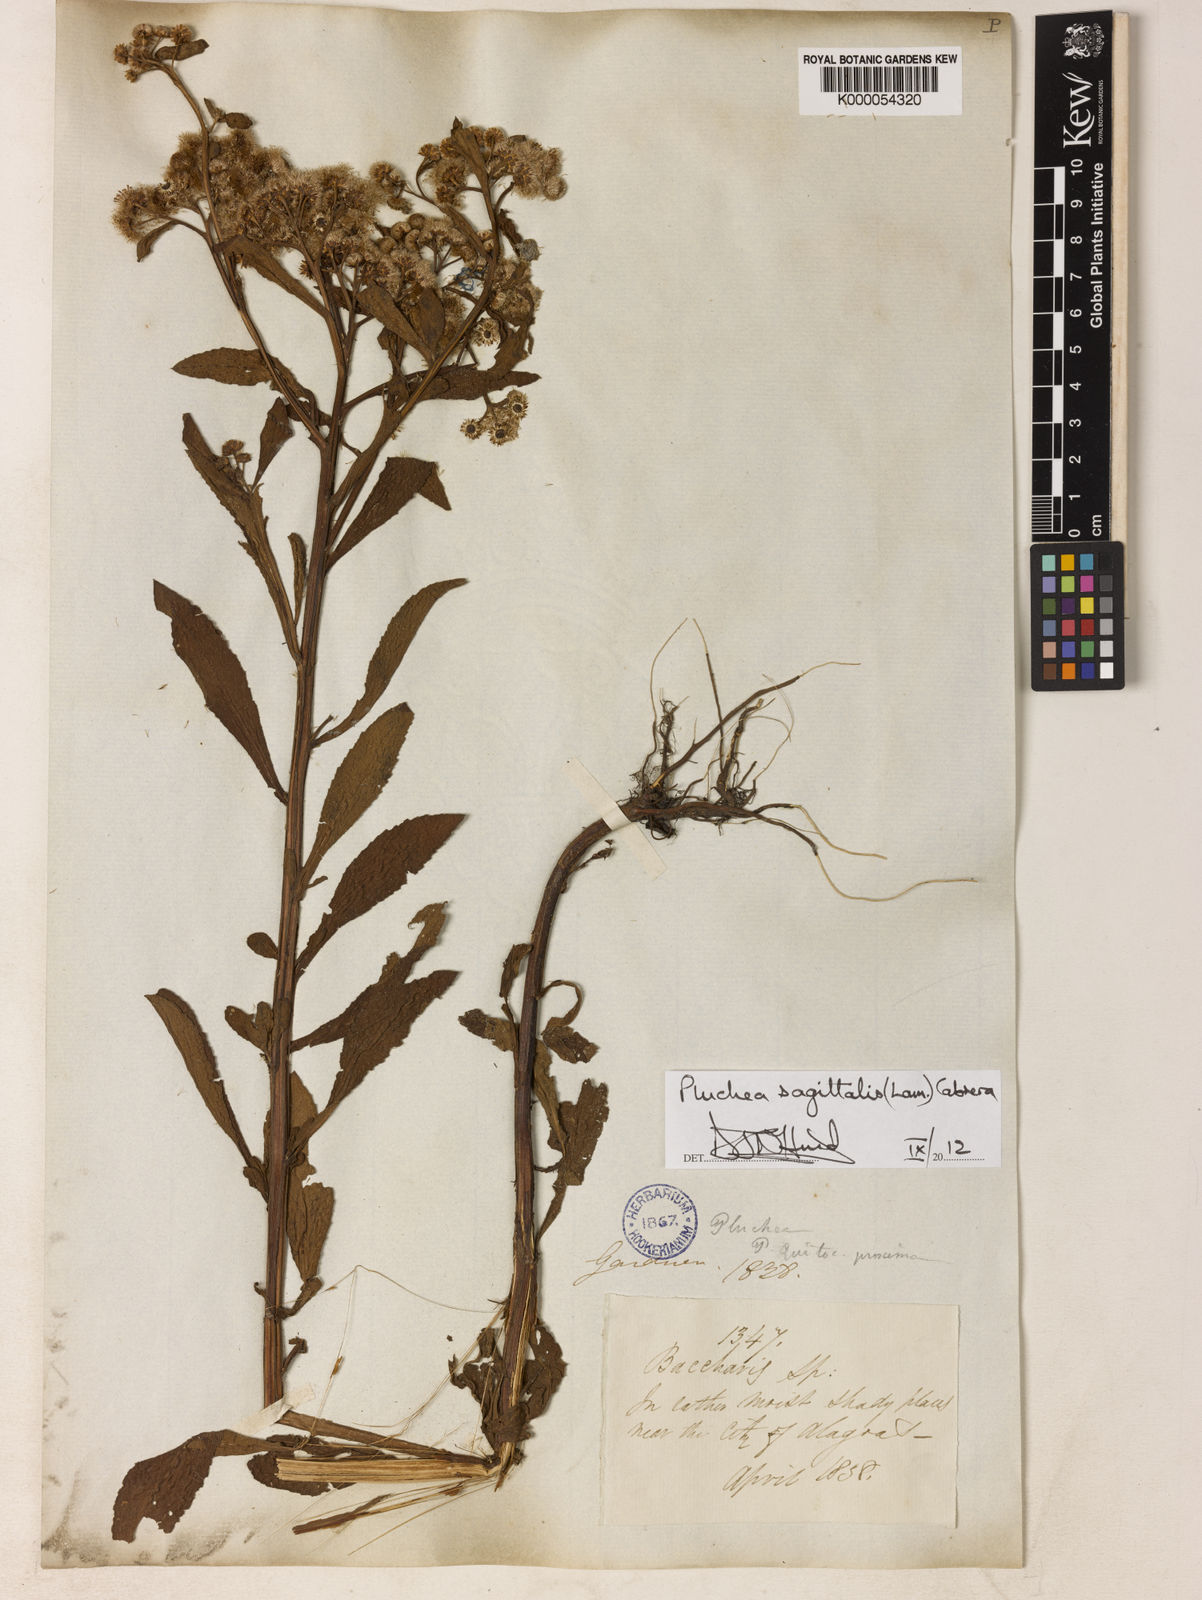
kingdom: Plantae
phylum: Tracheophyta
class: Magnoliopsida
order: Asterales
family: Asteraceae
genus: Pluchea
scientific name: Pluchea sagittalis
